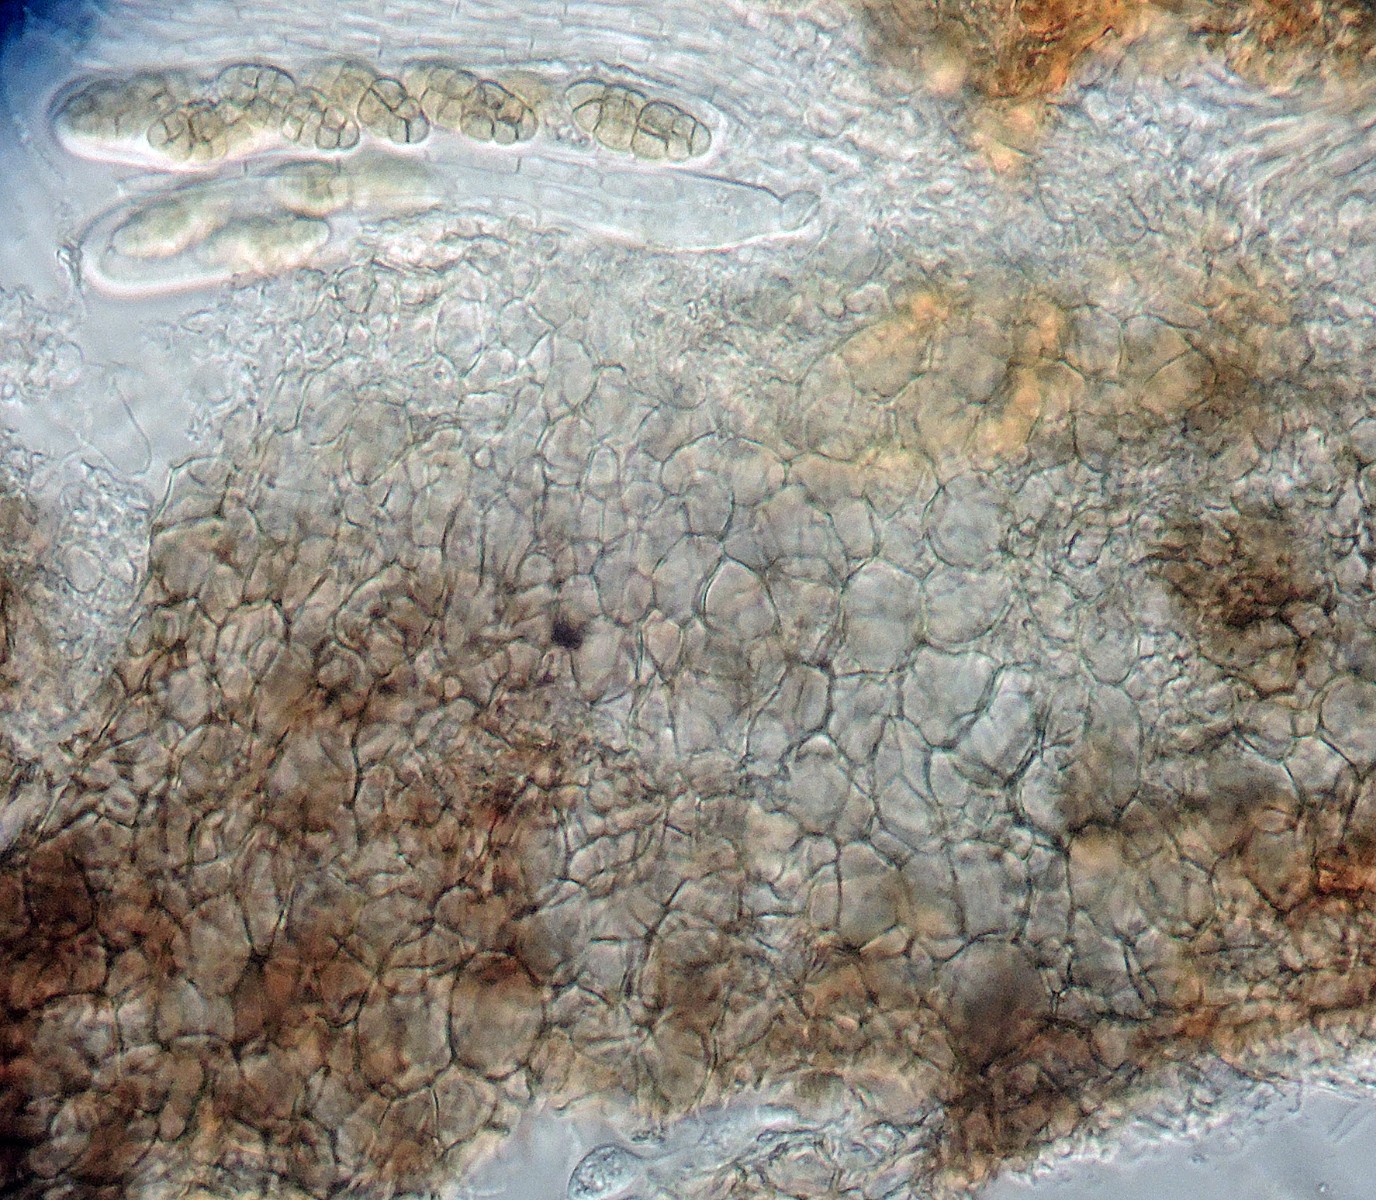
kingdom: Fungi
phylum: Ascomycota
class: Dothideomycetes
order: Pleosporales
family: Pleosporaceae
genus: Pleospora
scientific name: Pleospora
